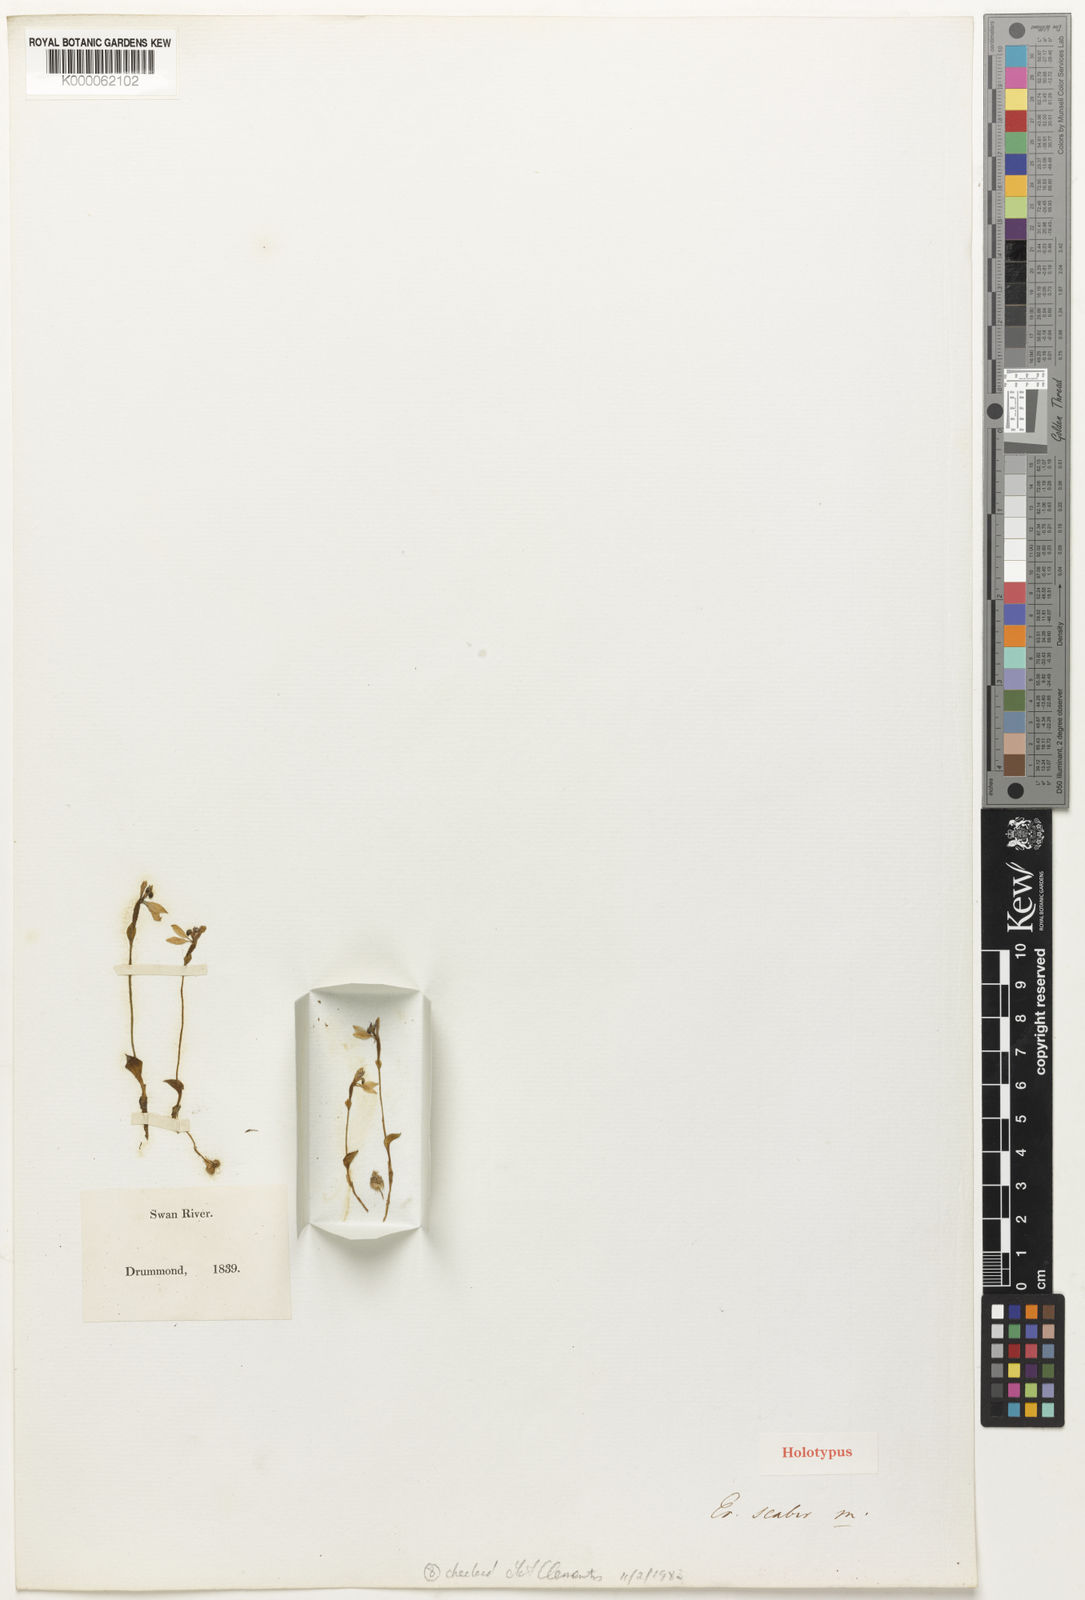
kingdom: Plantae
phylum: Tracheophyta
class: Liliopsida
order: Asparagales
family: Orchidaceae
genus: Eriochilus
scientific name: Eriochilus scaber
